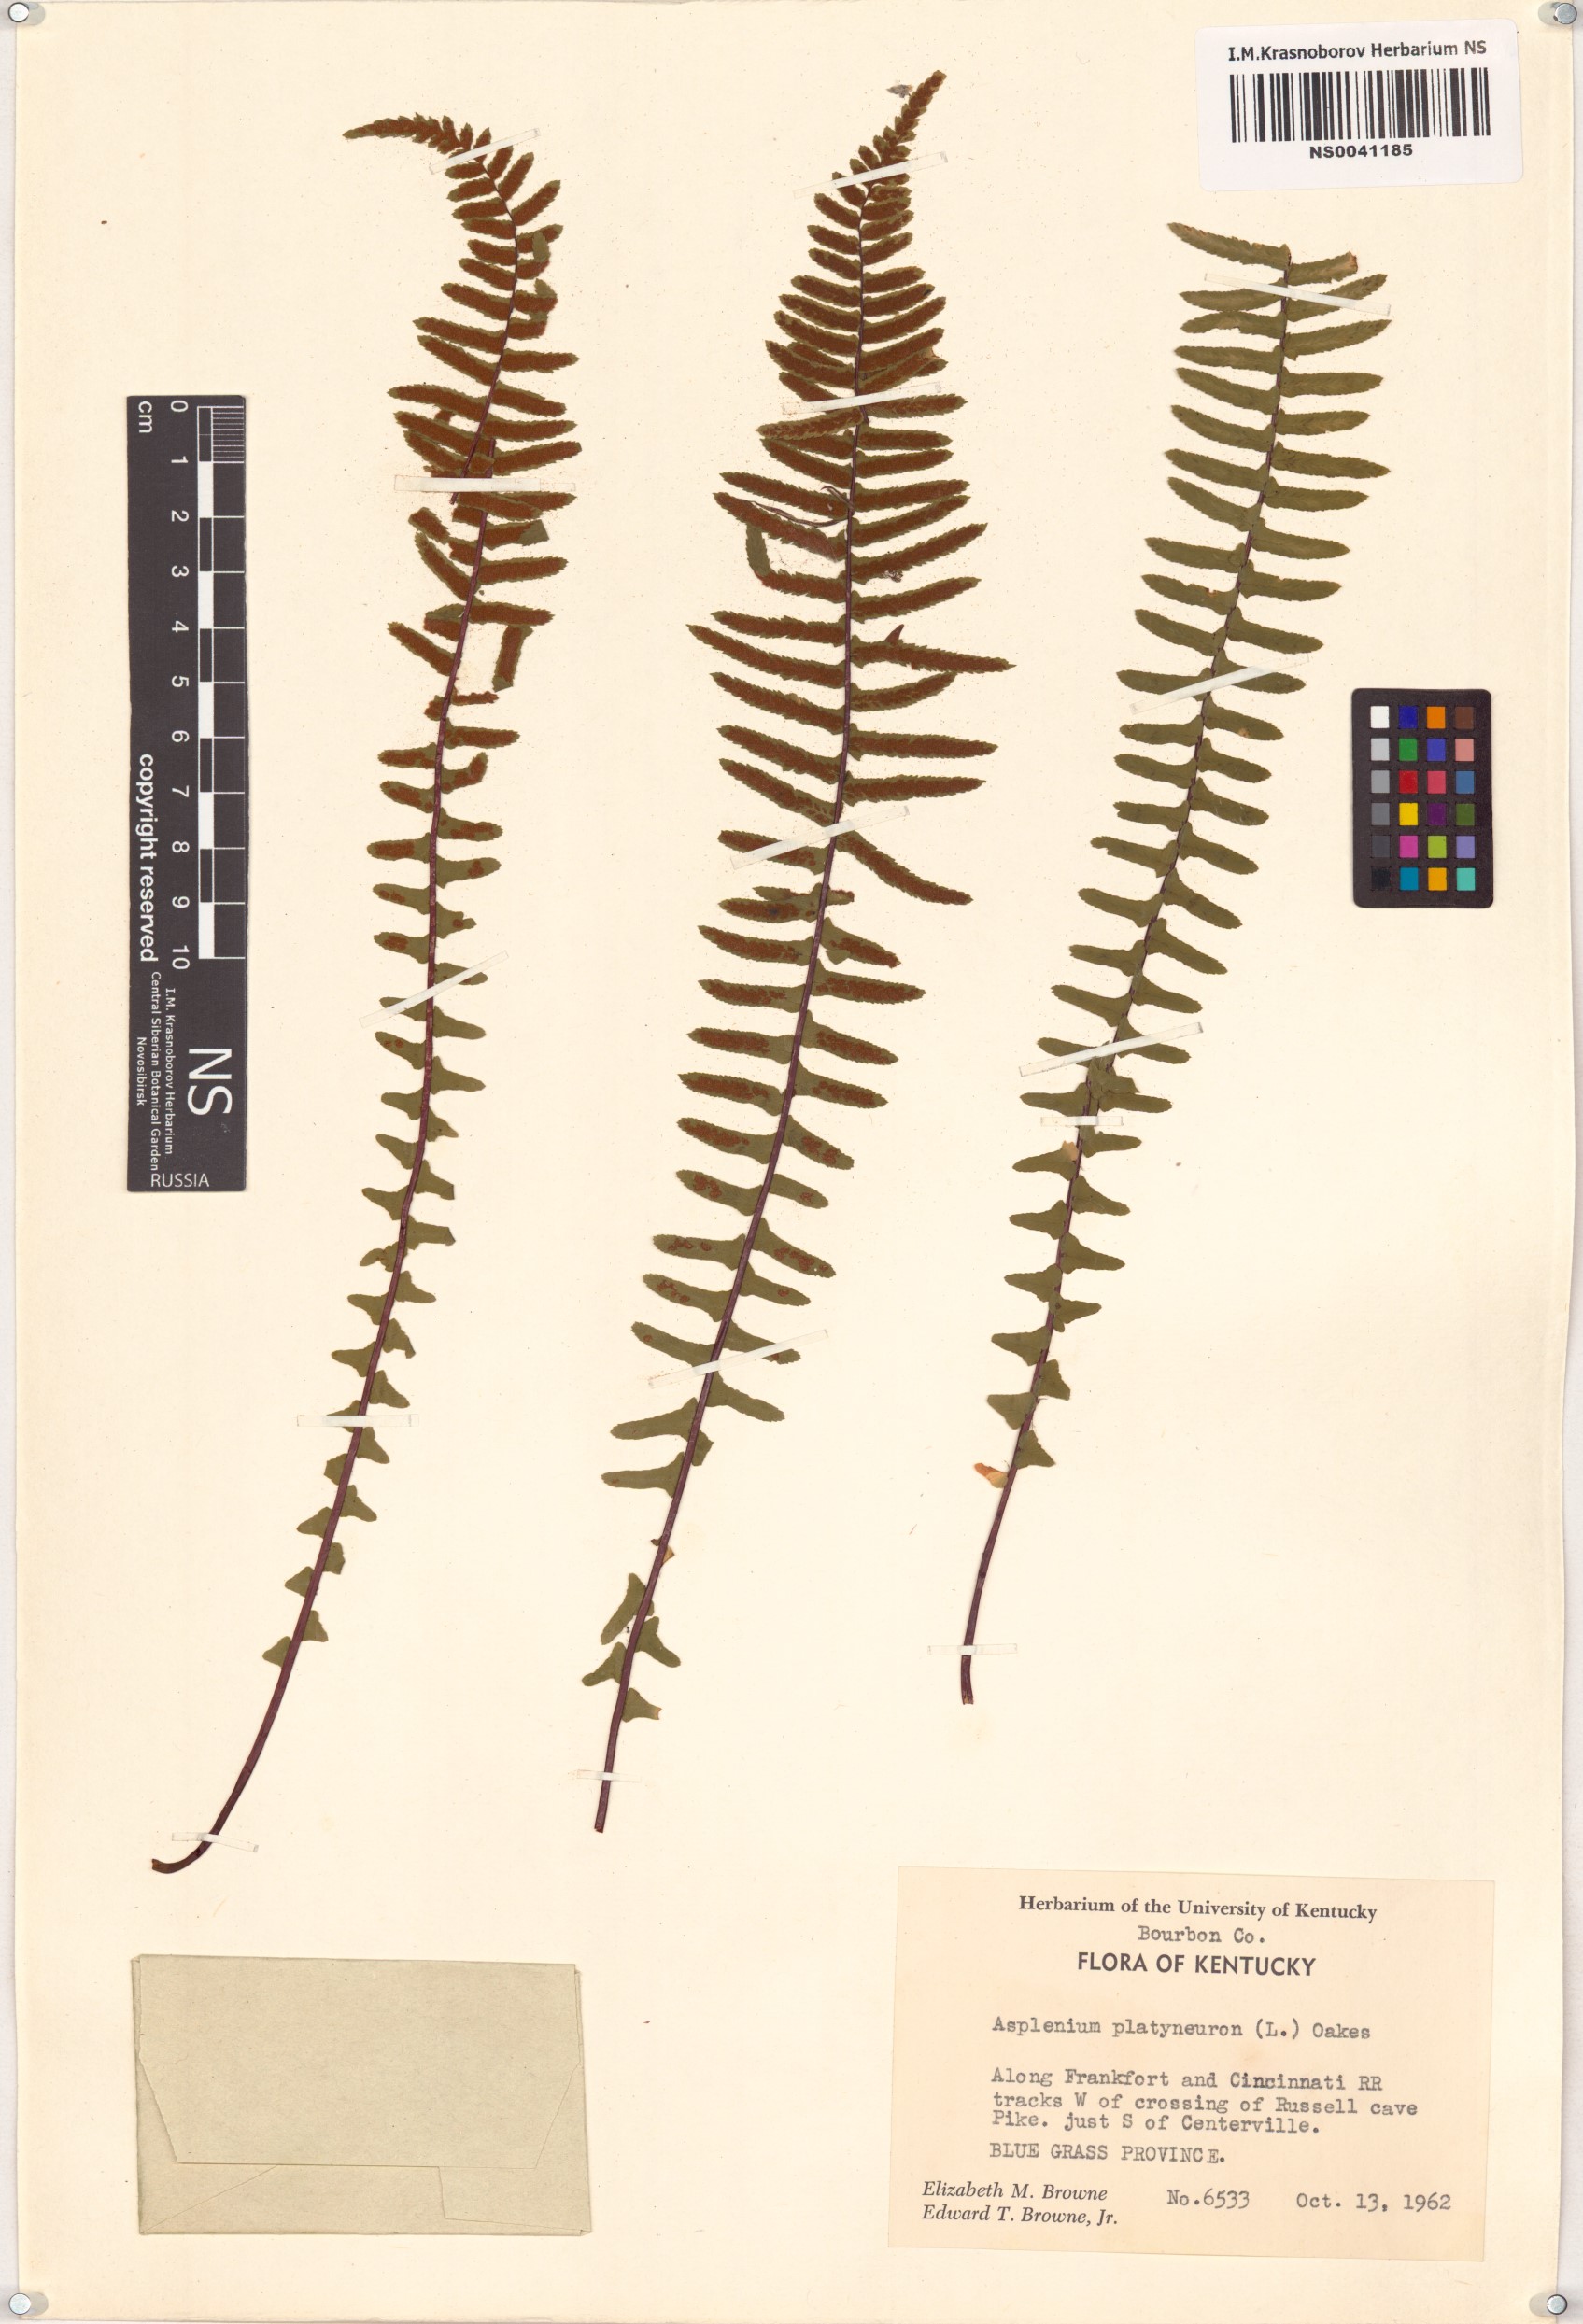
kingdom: Plantae
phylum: Tracheophyta
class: Polypodiopsida
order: Polypodiales
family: Aspleniaceae
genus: Asplenium
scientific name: Asplenium platyneuron
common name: Ebony spleenwort
